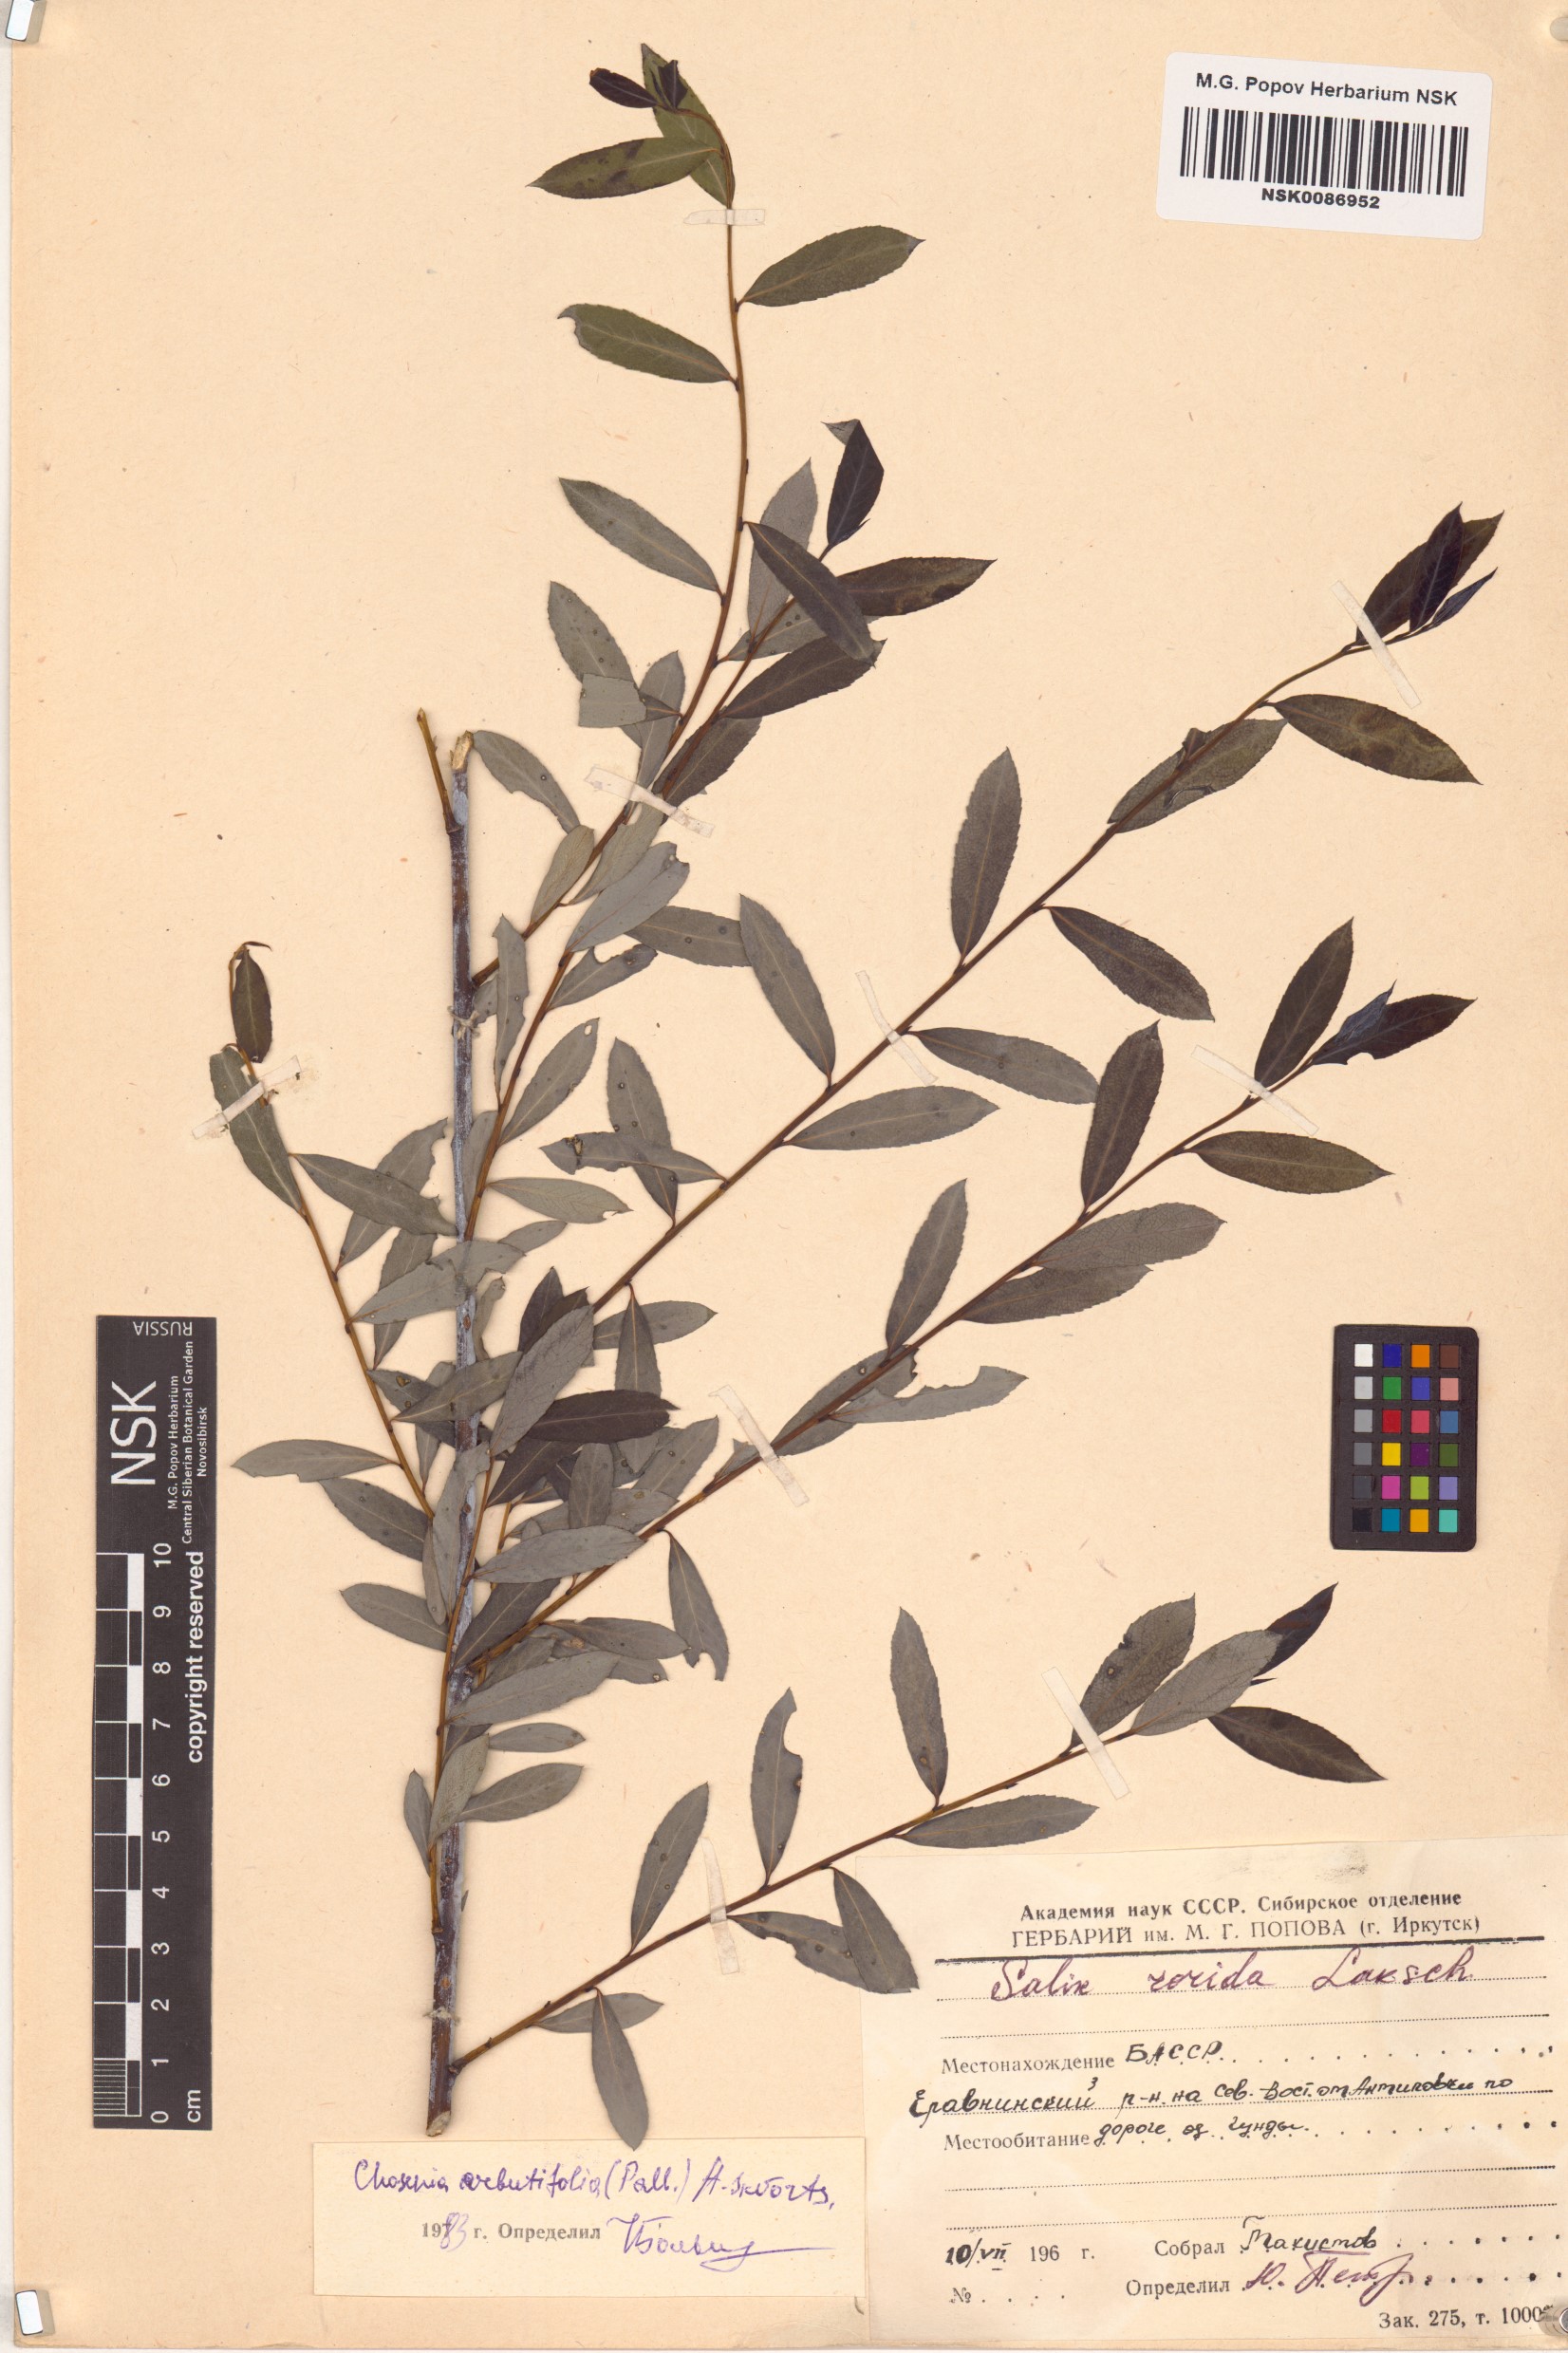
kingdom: Plantae
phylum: Tracheophyta
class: Magnoliopsida
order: Malpighiales
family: Salicaceae
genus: Chosenia
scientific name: Chosenia arbutifolia
